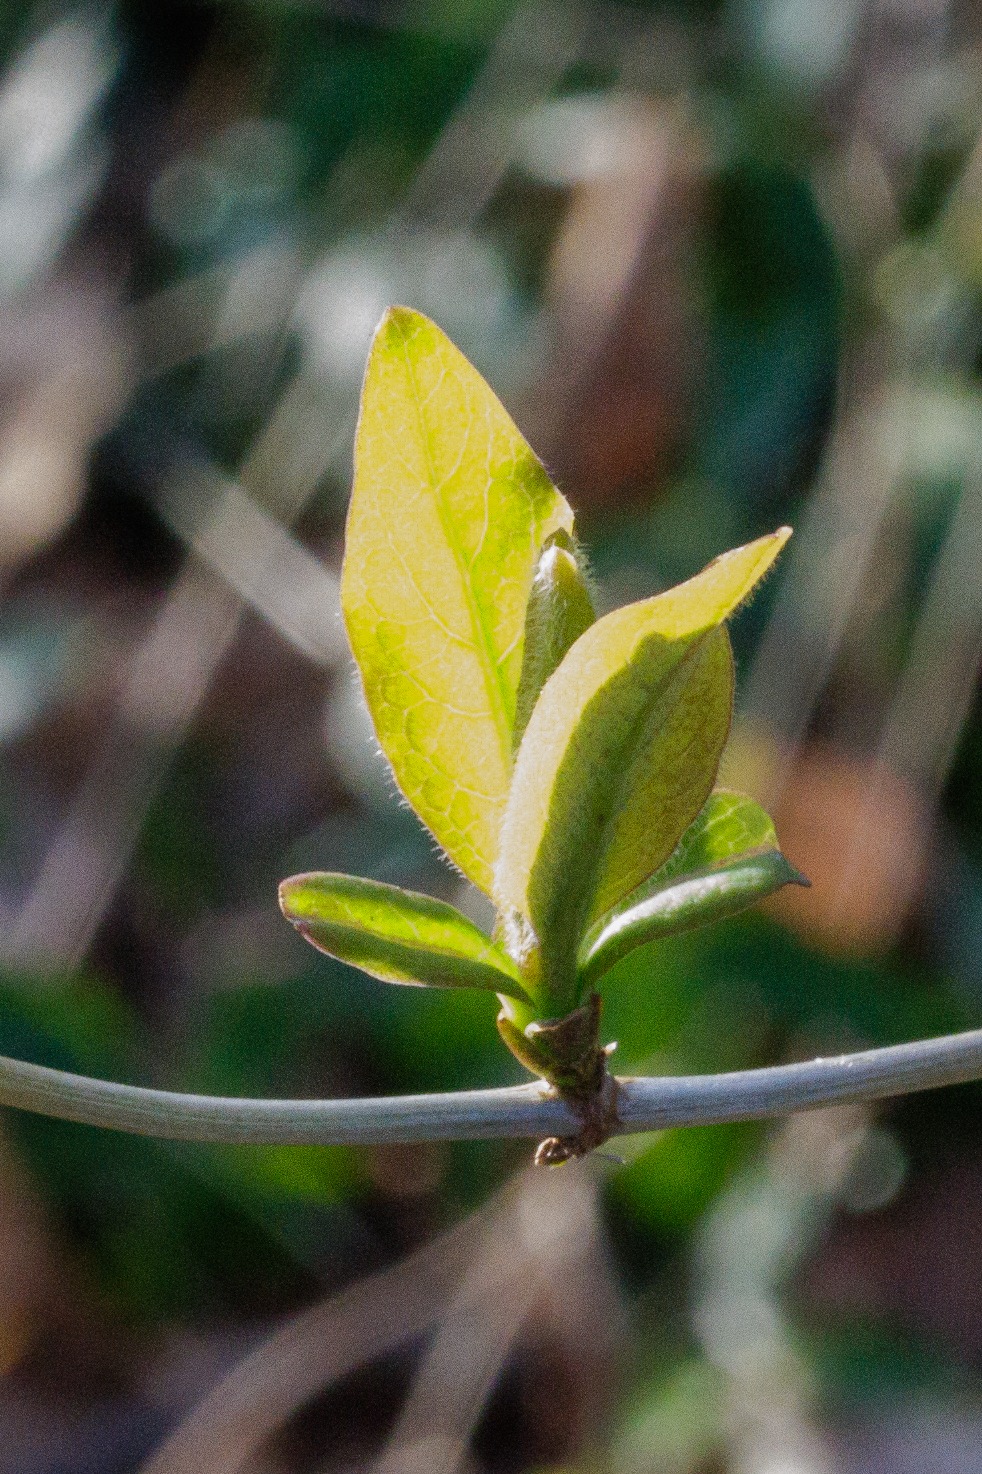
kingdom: Plantae
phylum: Tracheophyta
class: Magnoliopsida
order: Dipsacales
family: Caprifoliaceae
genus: Lonicera
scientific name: Lonicera periclymenum
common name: Almindelig gedeblad
